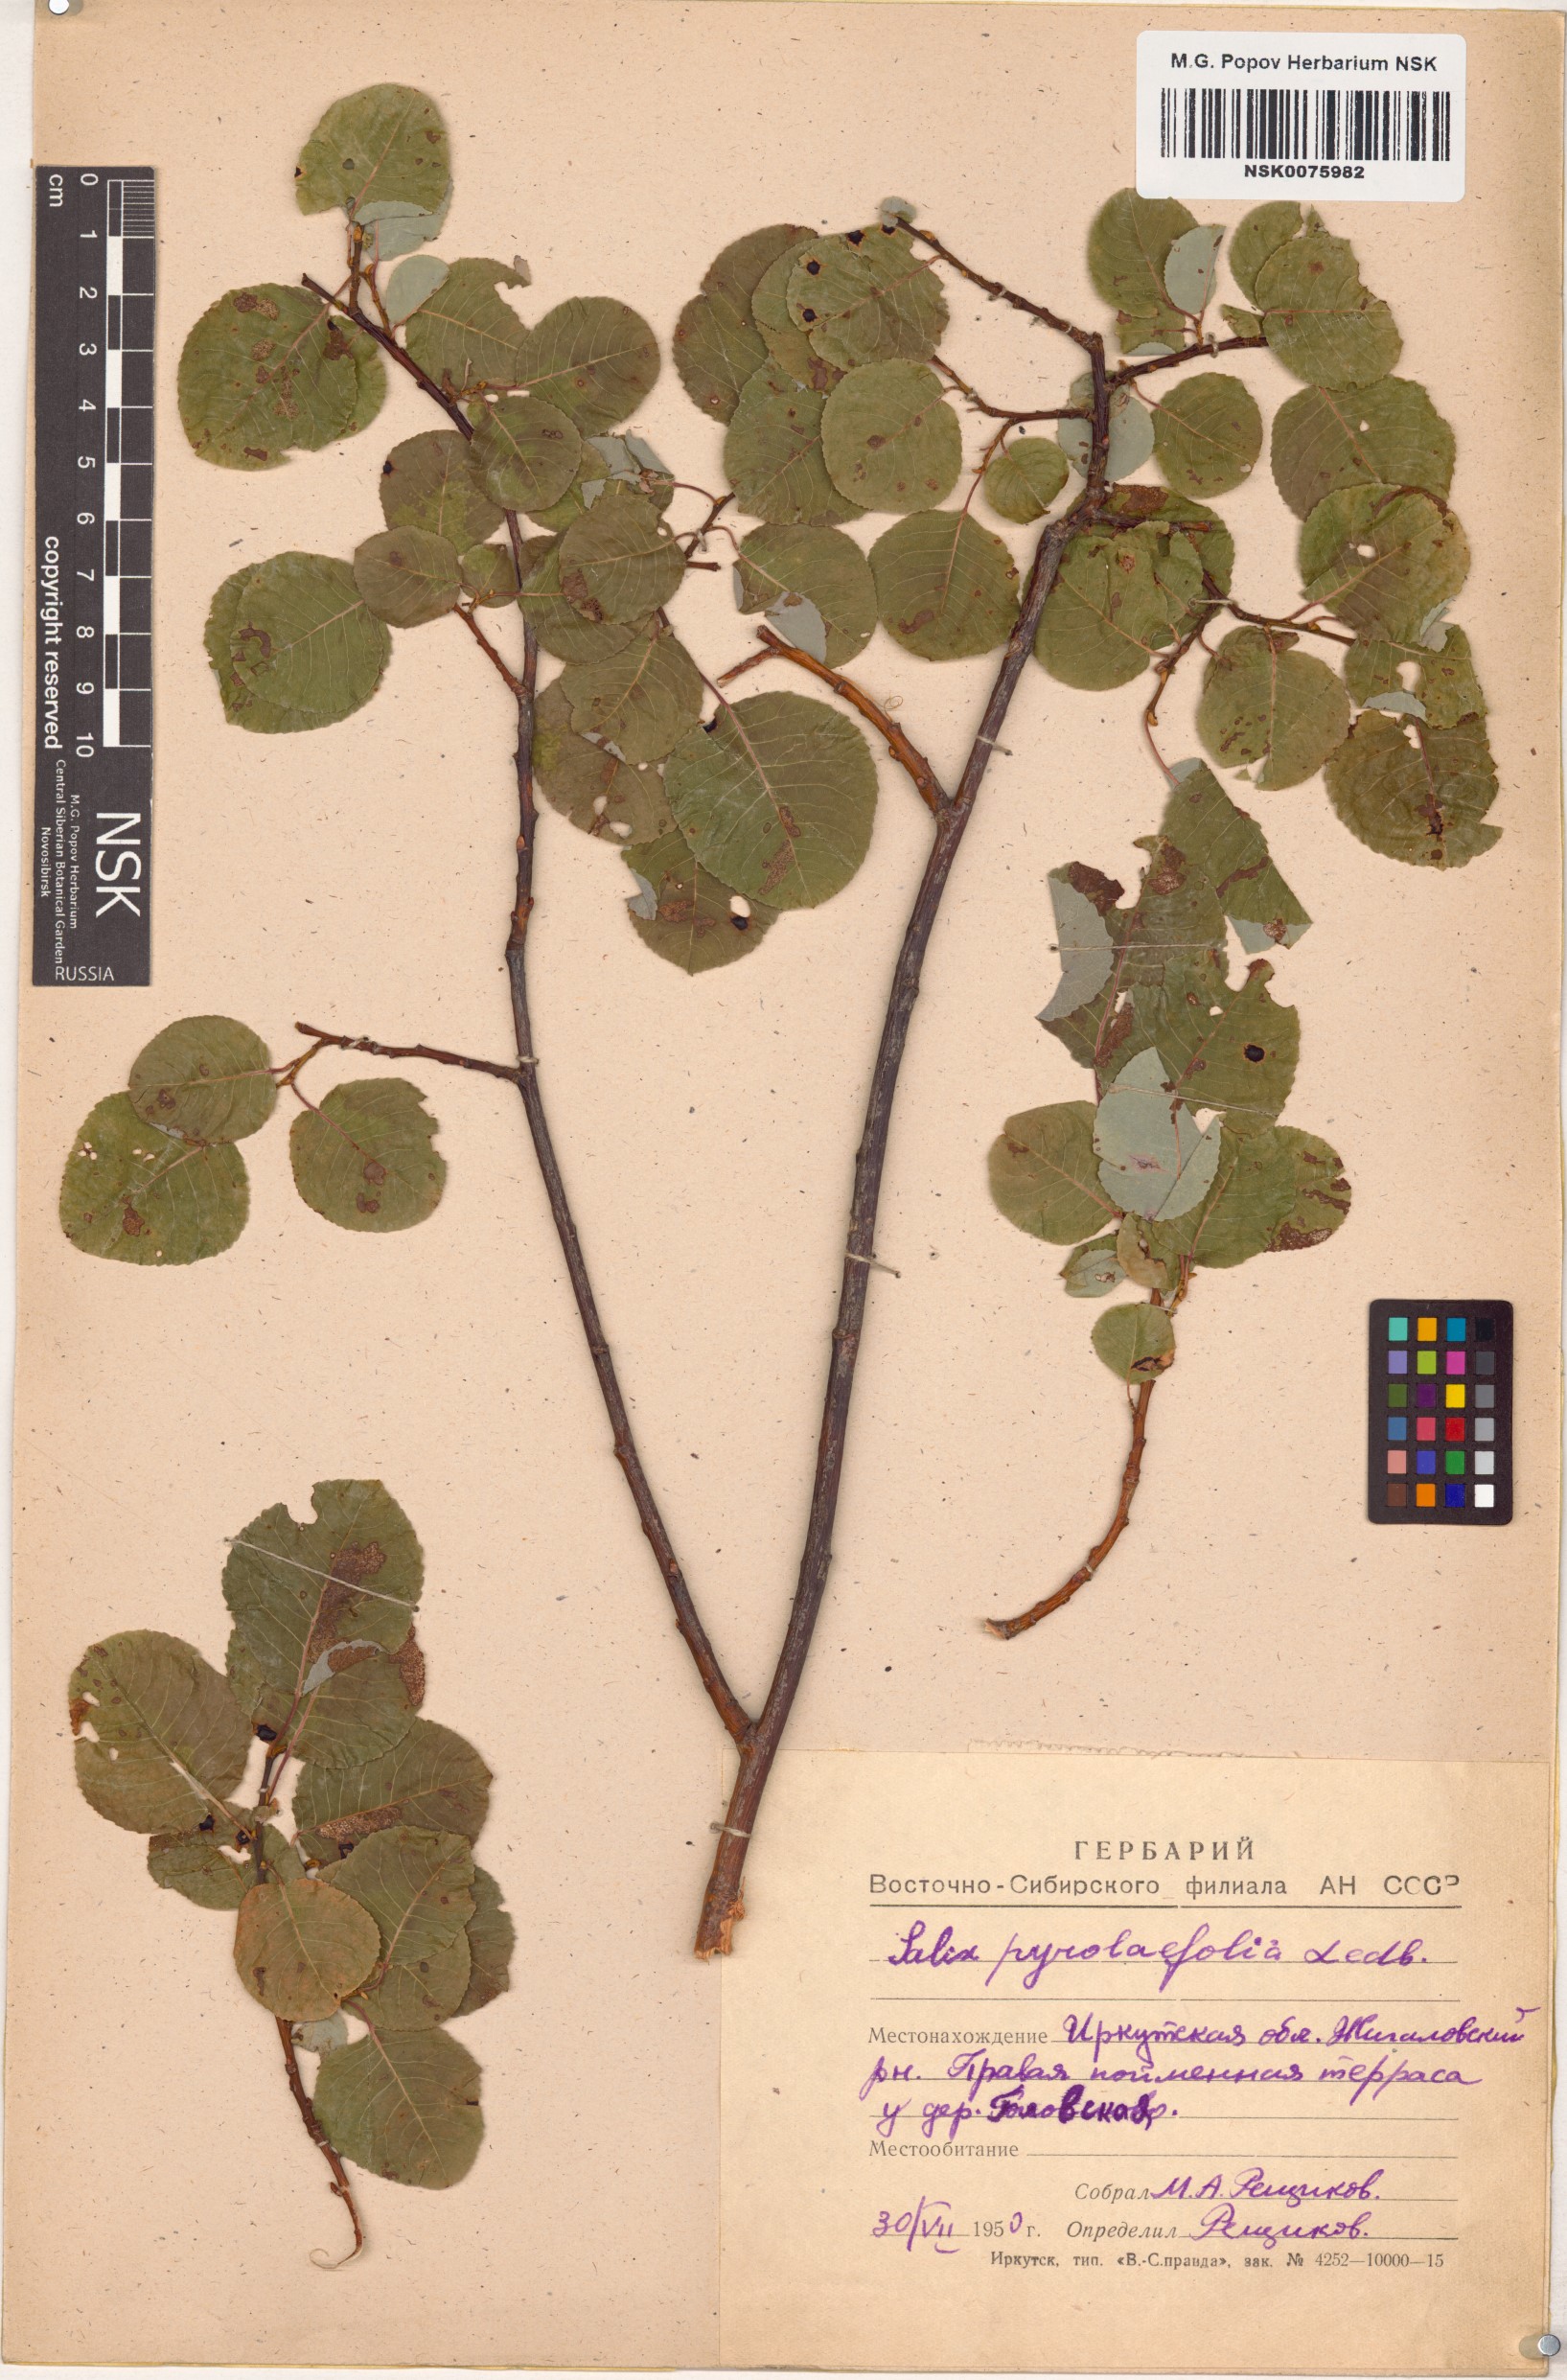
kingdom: Plantae
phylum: Tracheophyta
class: Magnoliopsida
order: Malpighiales
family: Salicaceae
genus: Salix
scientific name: Salix pyrolifolia
